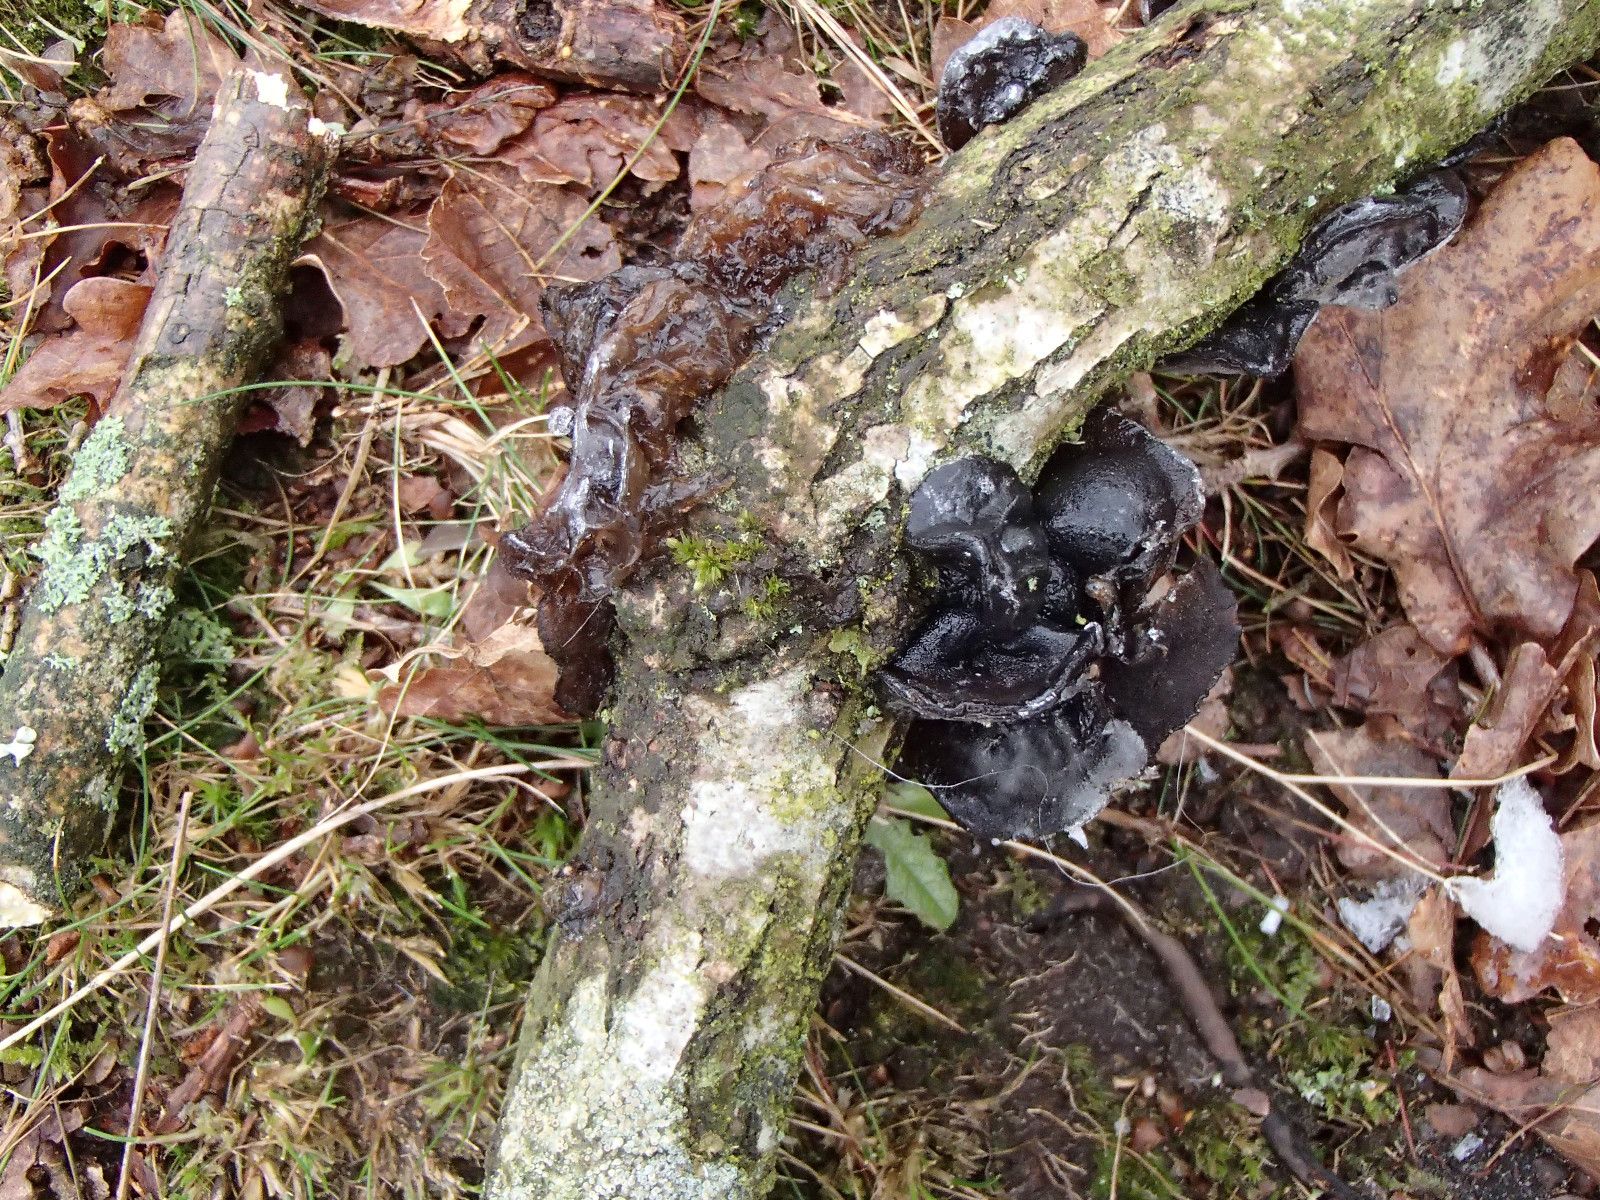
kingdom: Fungi
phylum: Basidiomycota
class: Agaricomycetes
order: Auriculariales
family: Auriculariaceae
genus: Exidia
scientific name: Exidia glandulosa
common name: ege-bævretop
